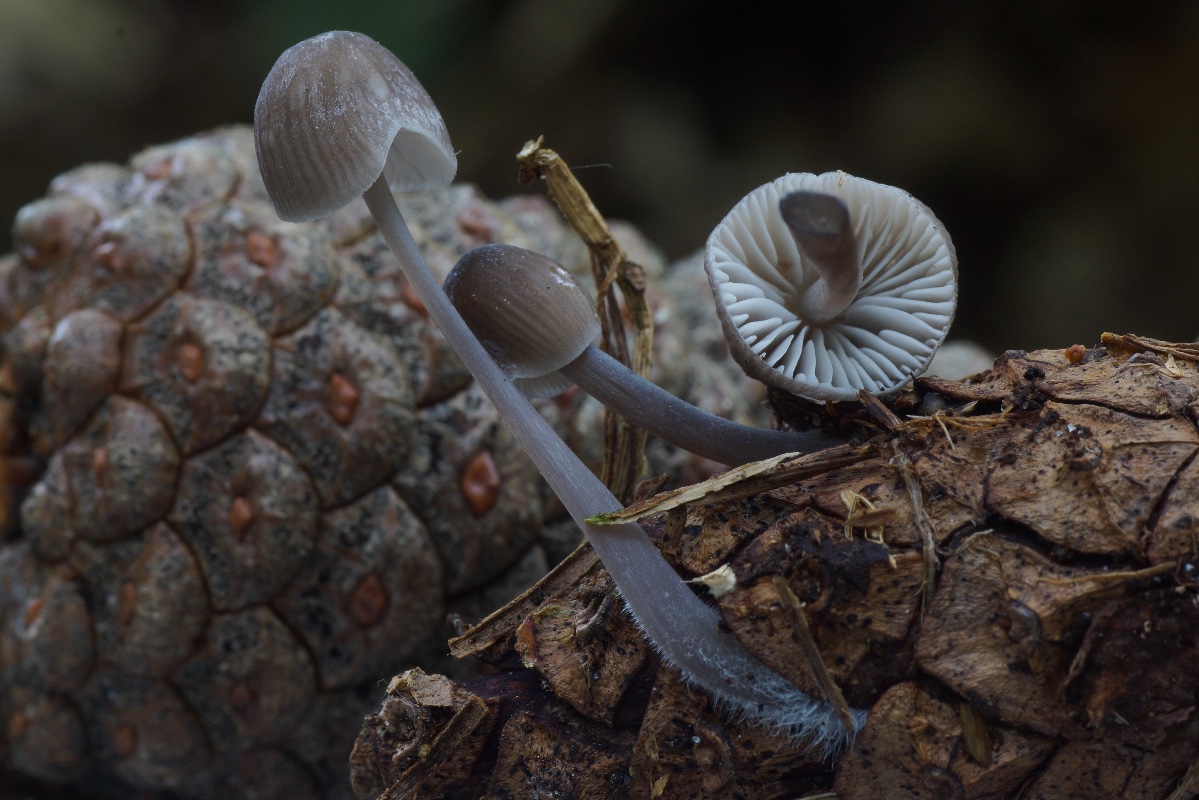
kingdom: Fungi
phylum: Basidiomycota
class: Agaricomycetes
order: Agaricales
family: Mycenaceae
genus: Mycena
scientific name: Mycena
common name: huesvamp
